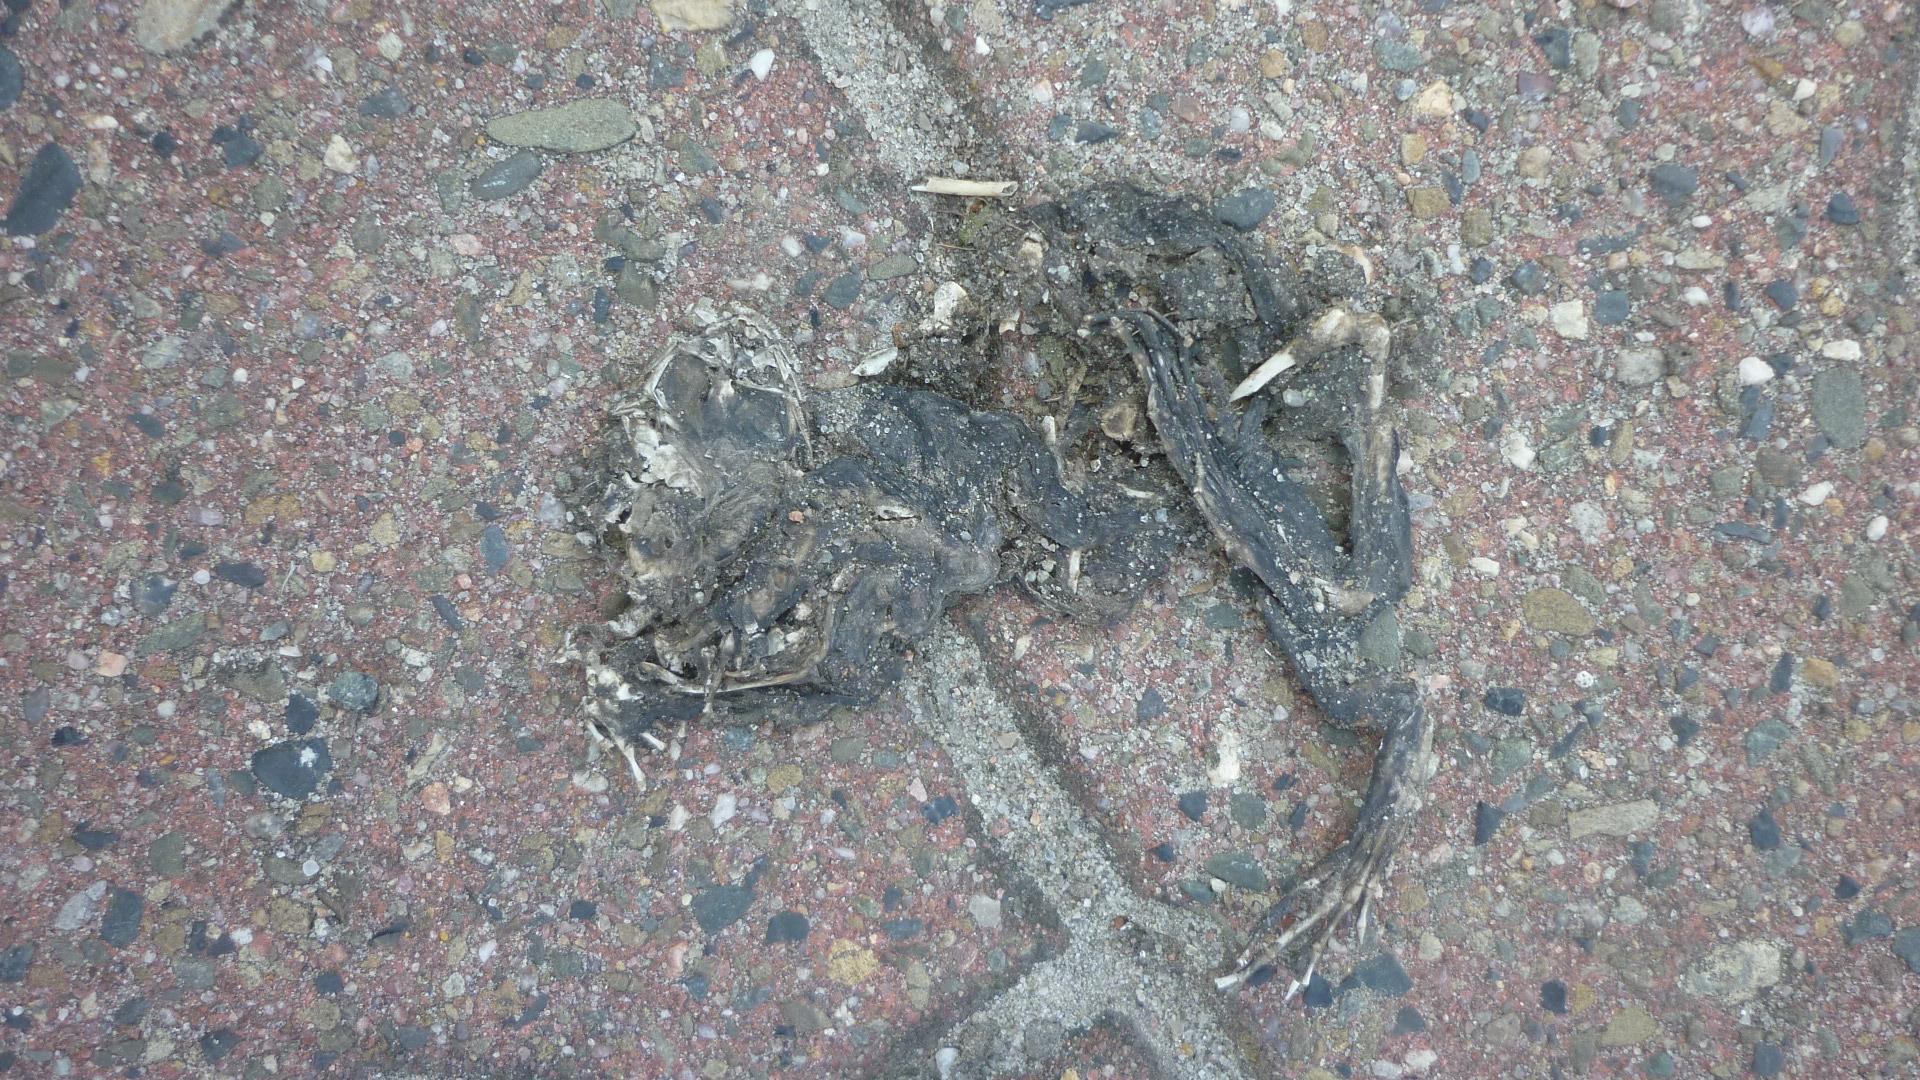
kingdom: Animalia
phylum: Chordata
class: Amphibia
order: Anura
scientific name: Anura
